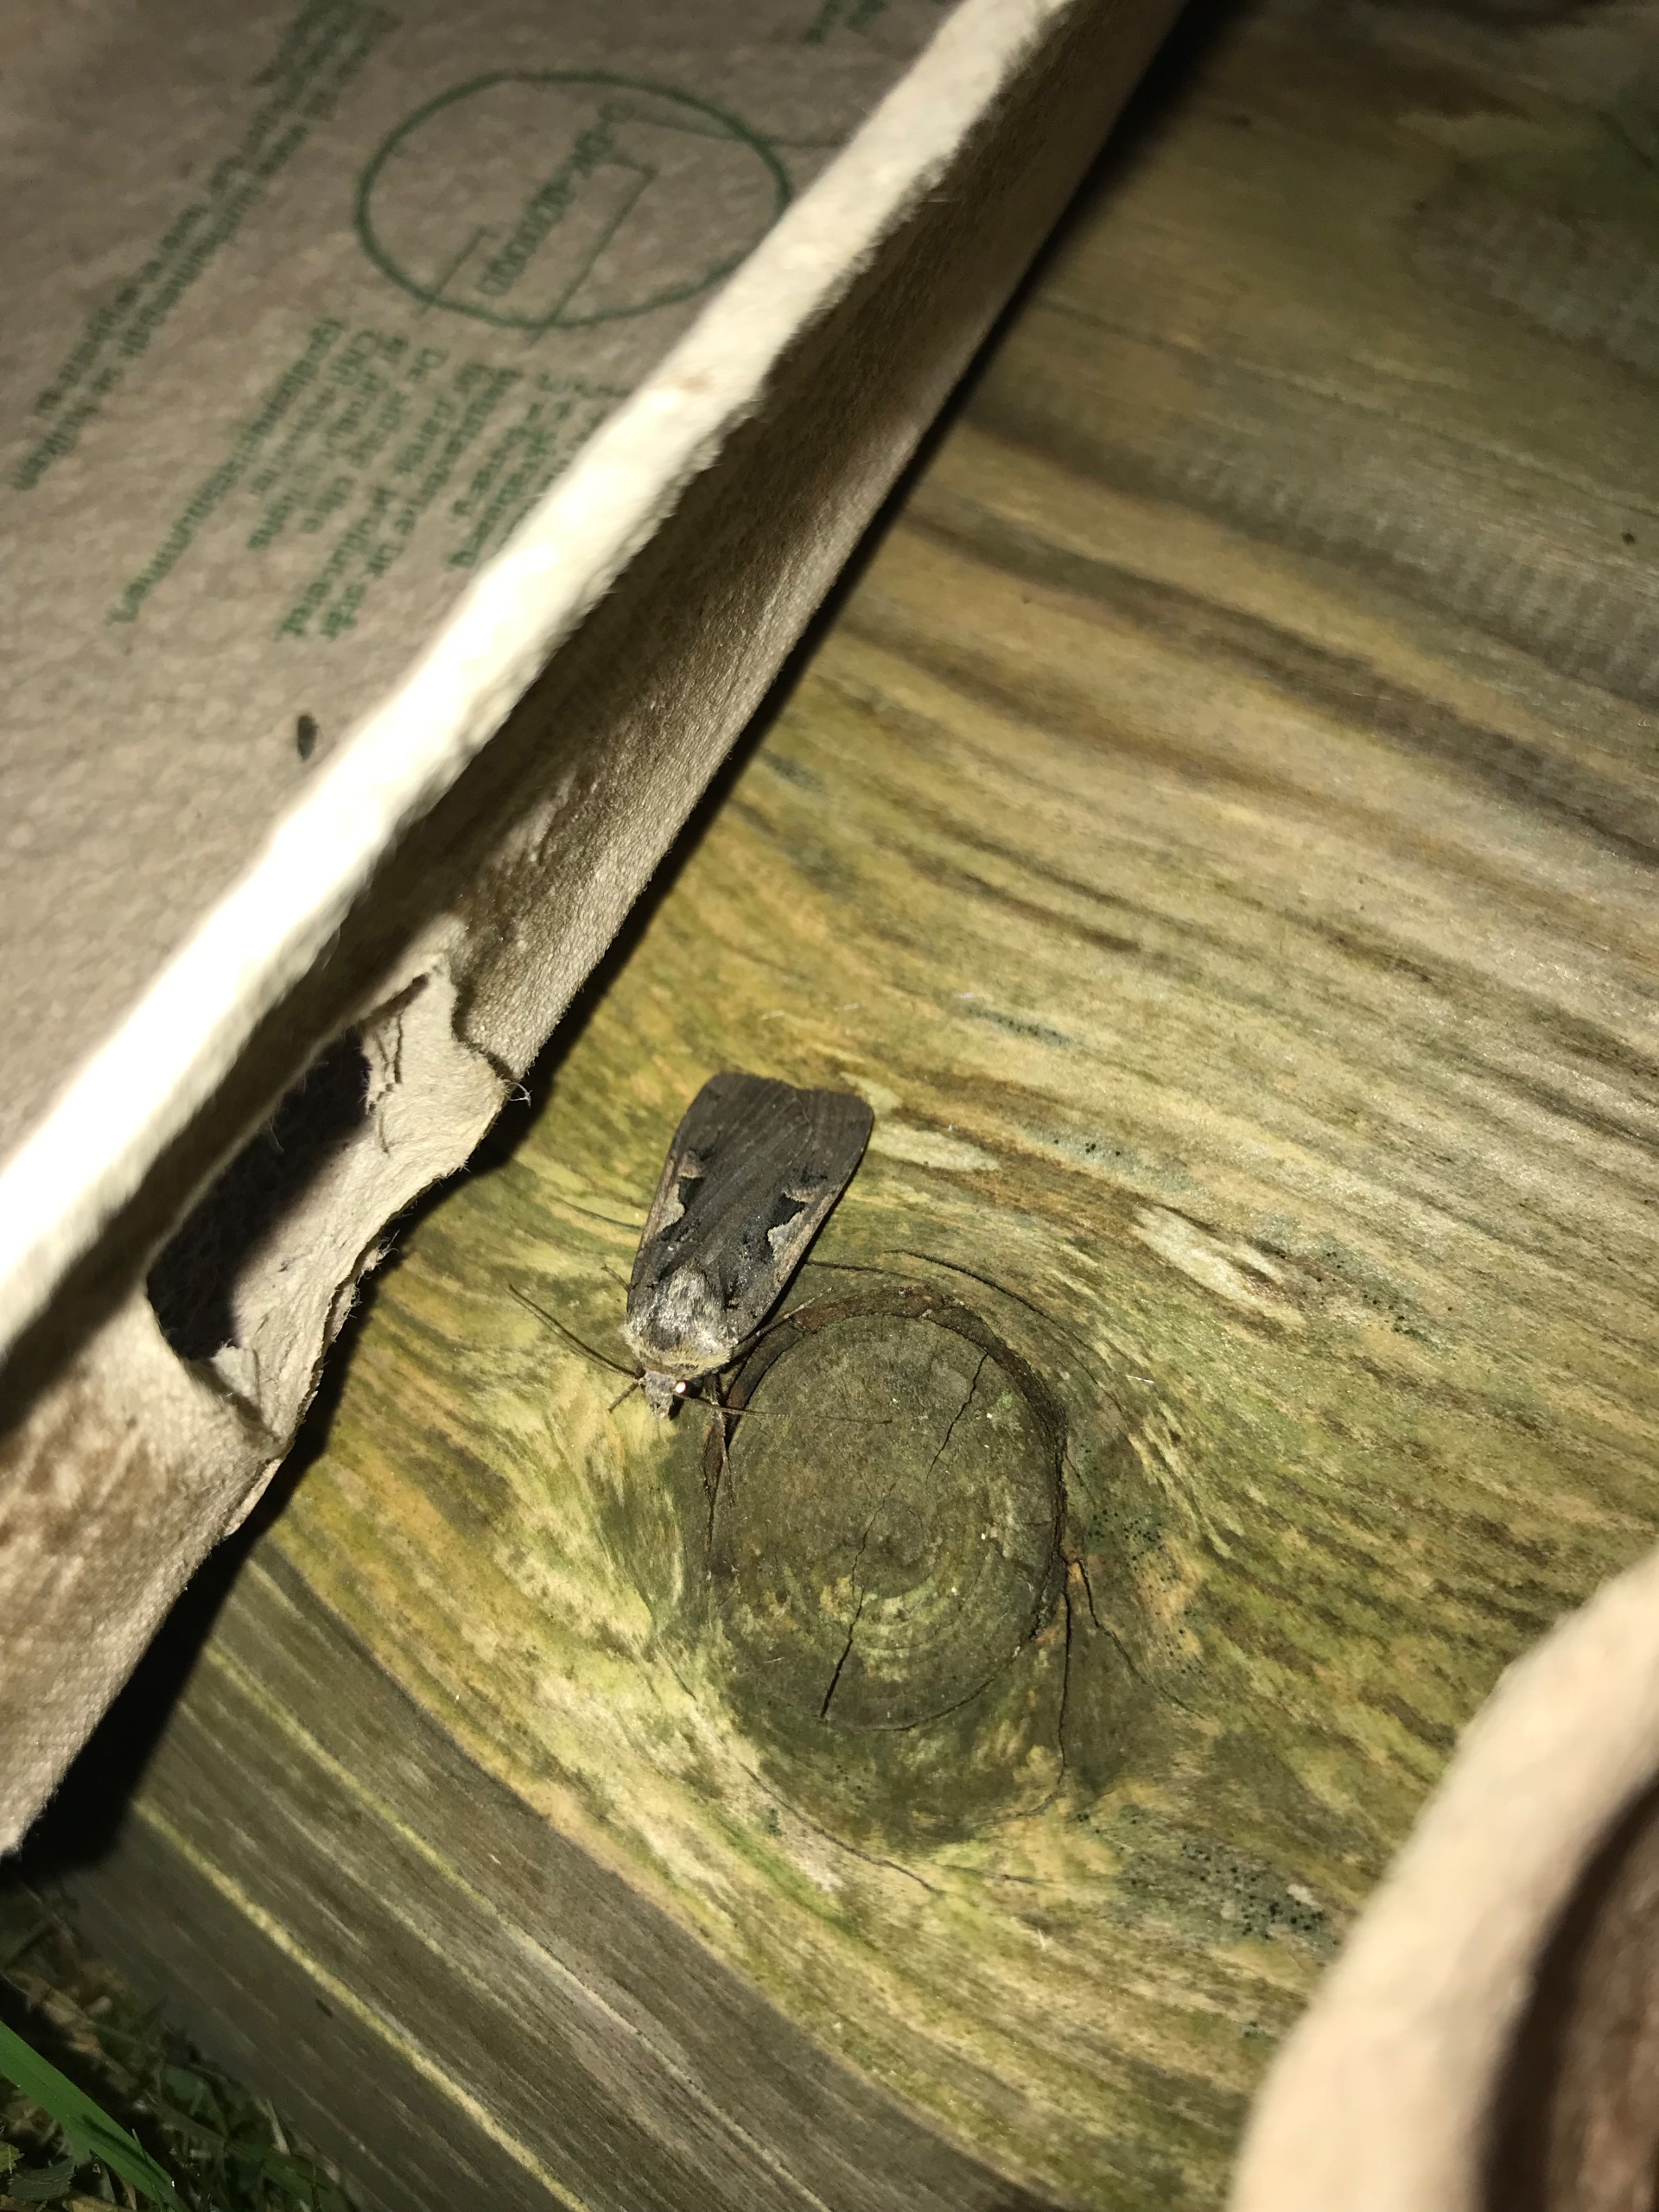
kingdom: Animalia
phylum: Arthropoda
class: Insecta
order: Lepidoptera
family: Noctuidae
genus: Xestia
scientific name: Xestia c-nigrum
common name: Det sorte c
